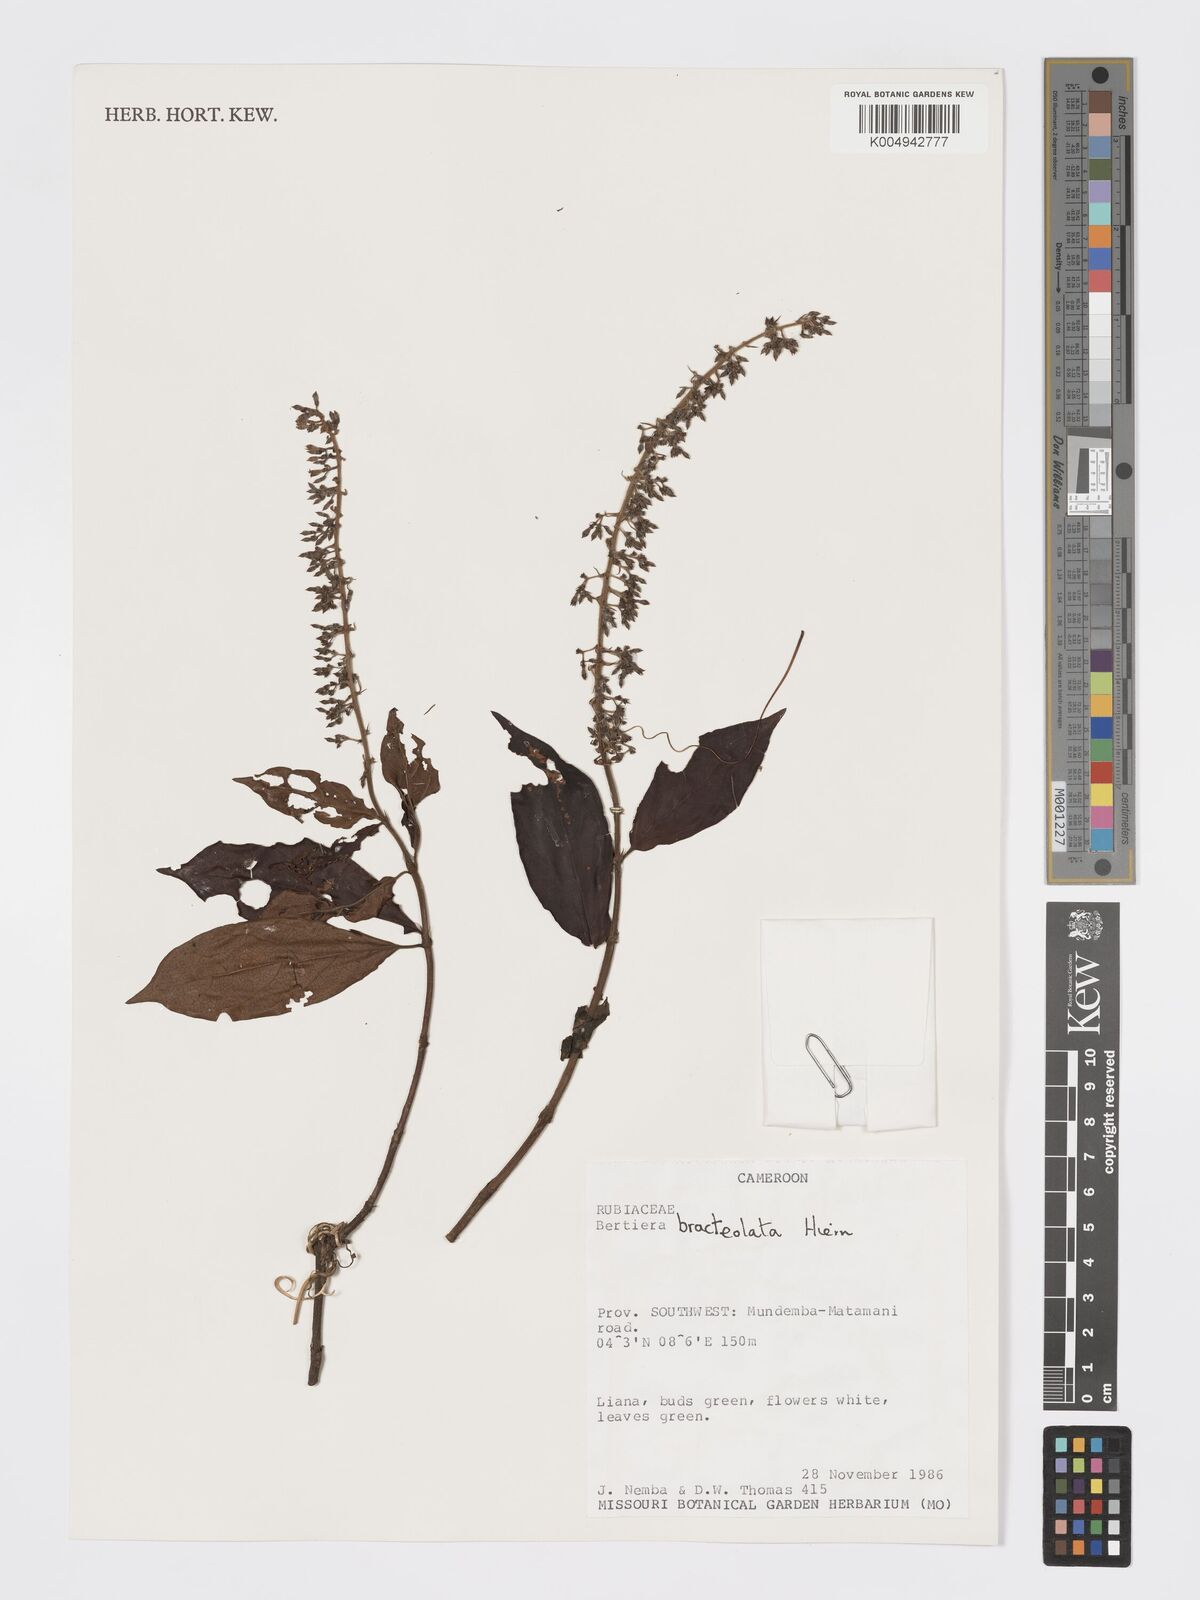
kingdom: Plantae
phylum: Tracheophyta
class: Magnoliopsida
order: Gentianales
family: Rubiaceae
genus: Bertiera
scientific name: Bertiera bracteolata
